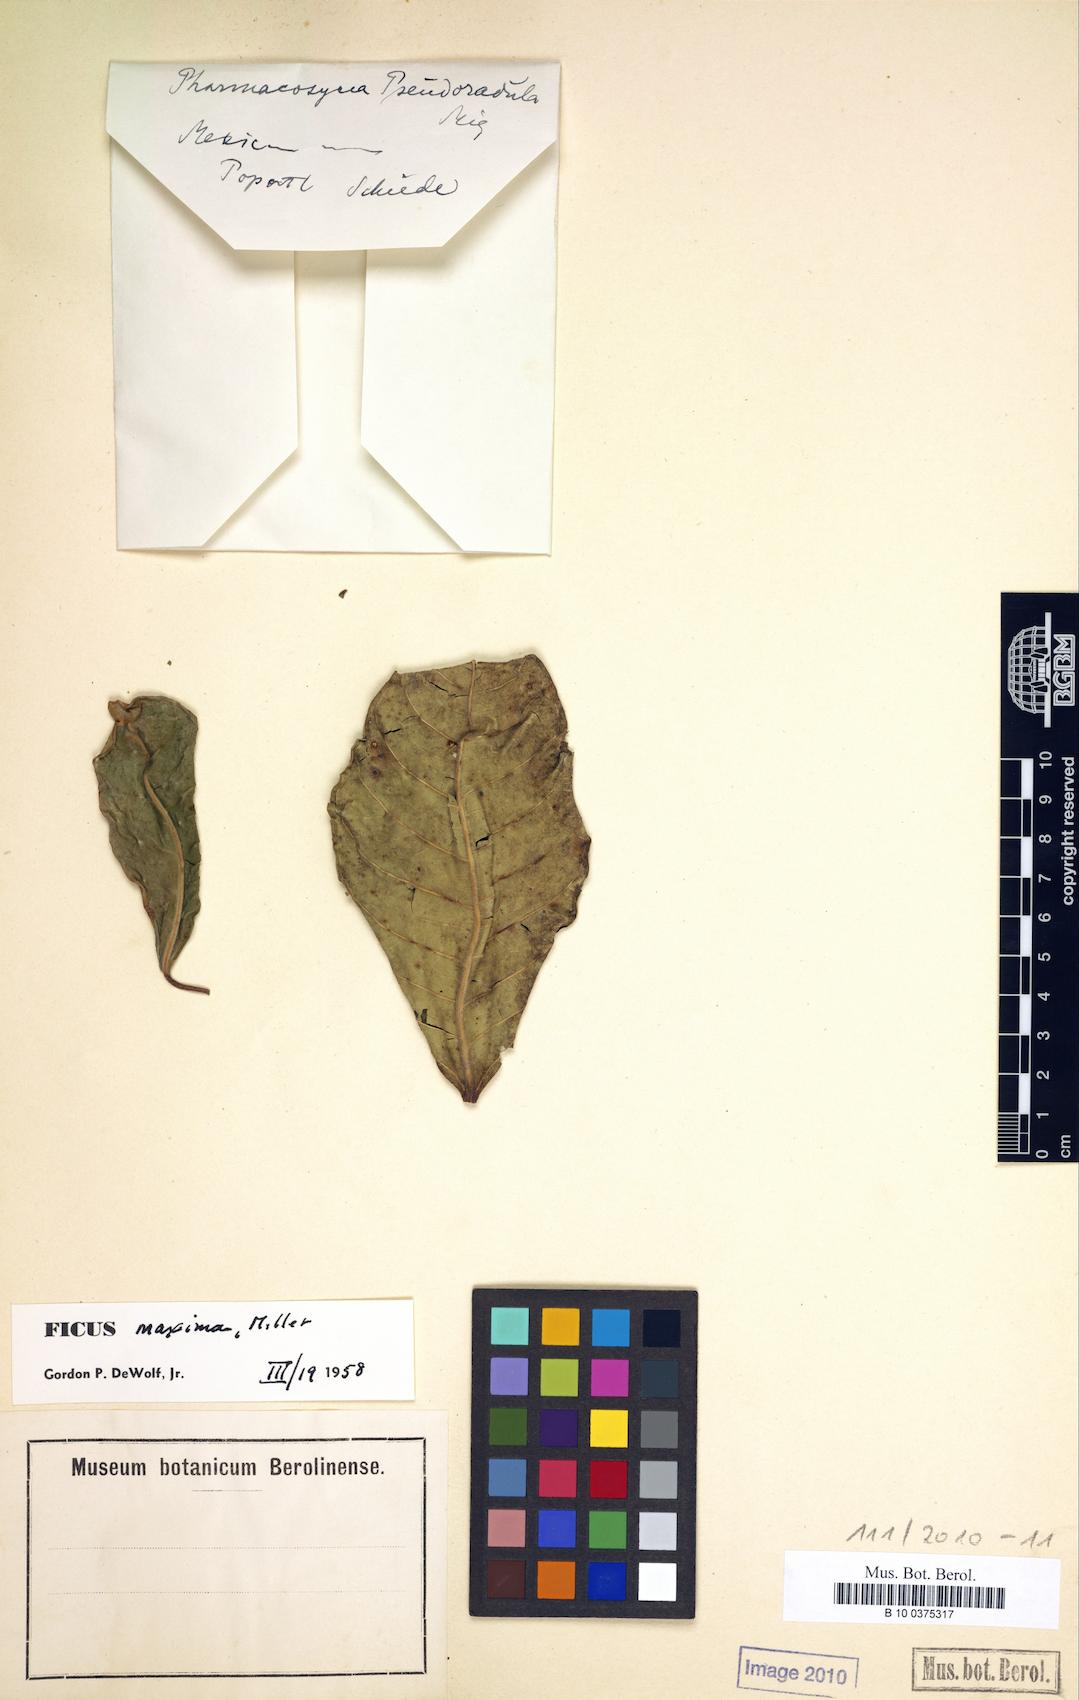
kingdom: Plantae
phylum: Tracheophyta
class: Magnoliopsida
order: Rosales
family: Moraceae
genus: Ficus
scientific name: Ficus maxima
